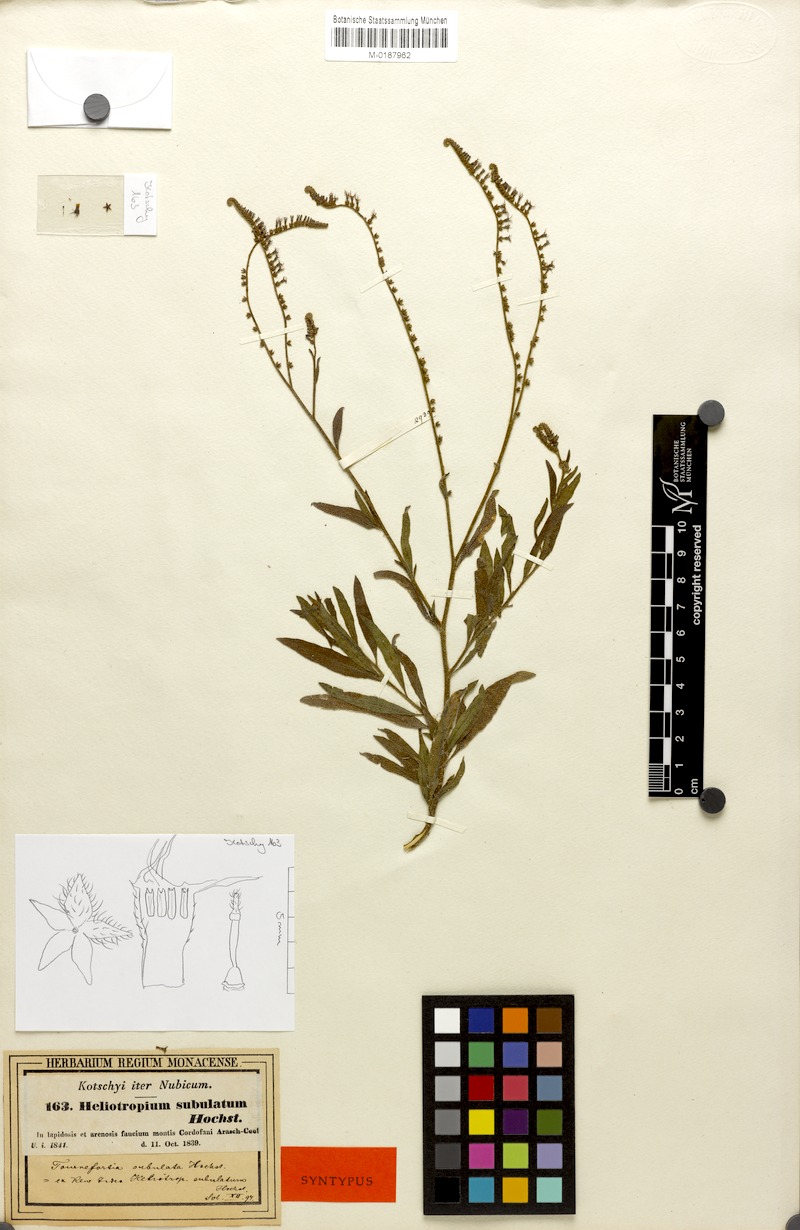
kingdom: Plantae
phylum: Tracheophyta
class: Magnoliopsida
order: Boraginales
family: Heliotropiaceae
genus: Heliotropium
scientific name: Heliotropium zeylanicum
